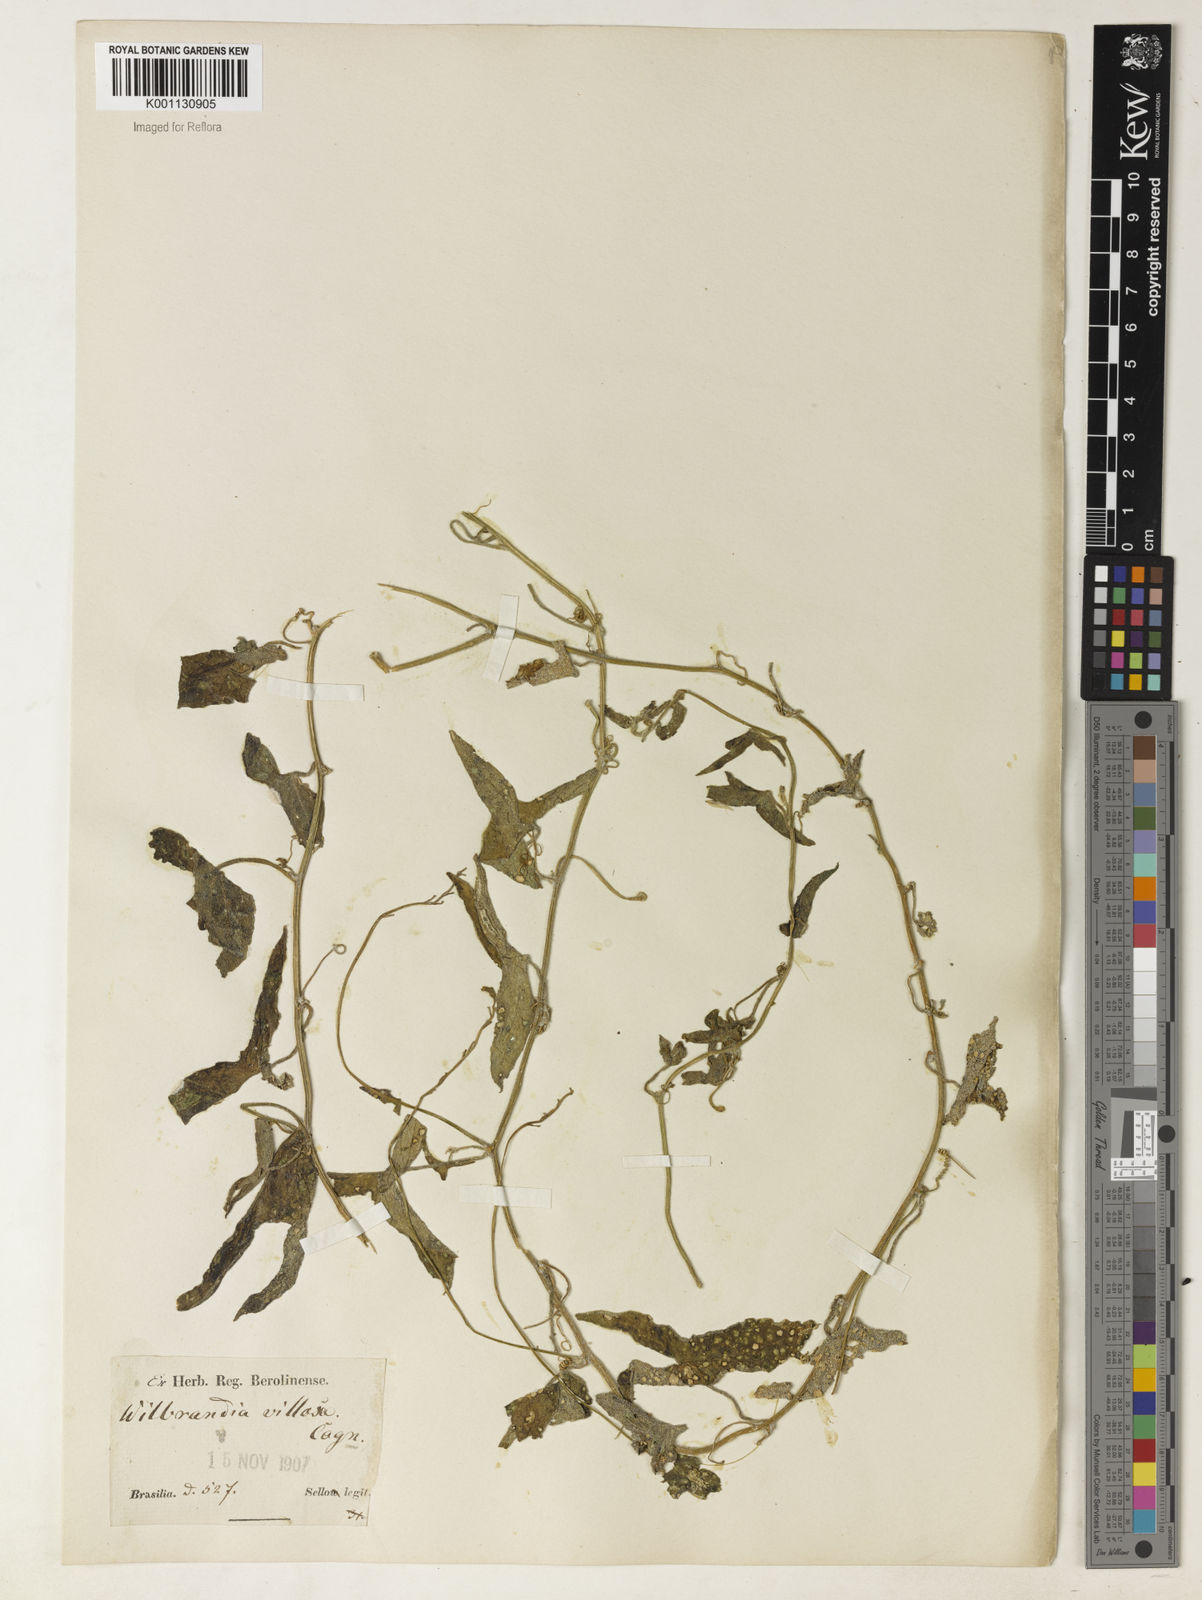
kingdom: Plantae
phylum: Tracheophyta
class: Magnoliopsida
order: Cucurbitales
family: Cucurbitaceae
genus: Apodanthera
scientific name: Apodanthera sagittifolia
